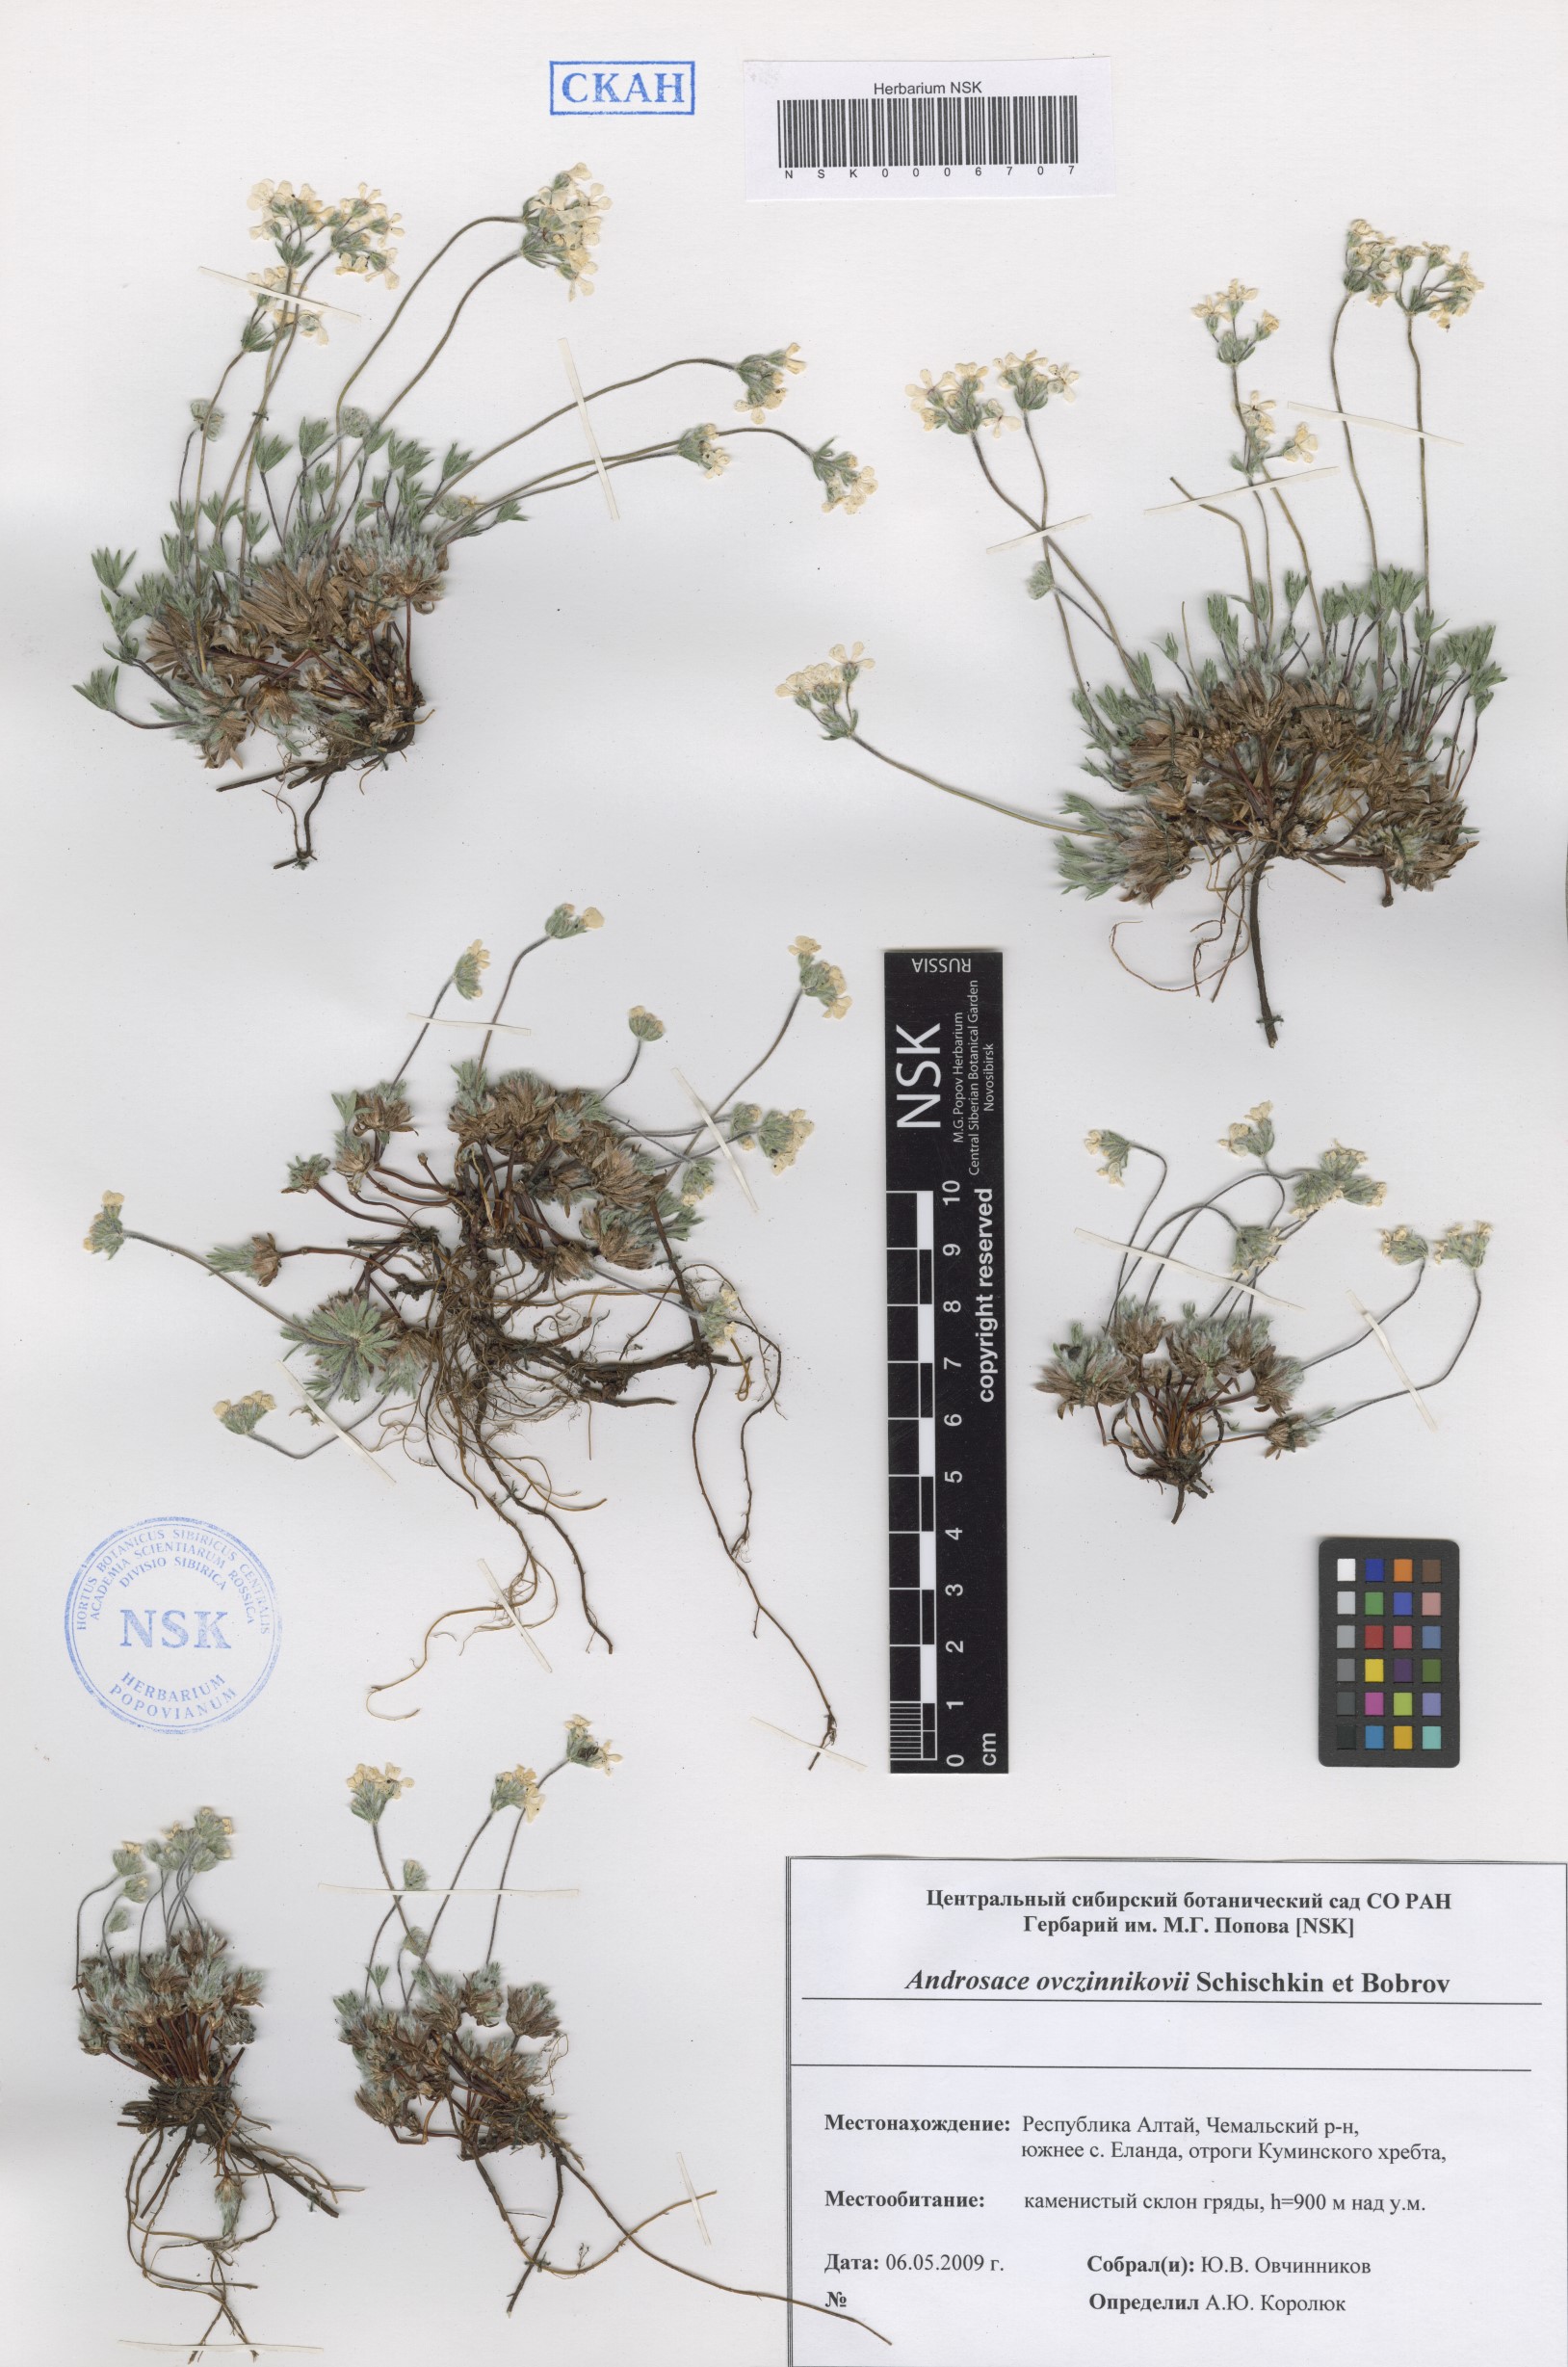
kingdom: Plantae
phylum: Tracheophyta
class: Magnoliopsida
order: Ericales
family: Primulaceae
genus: Androsace
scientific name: Androsace ovczinnikovii
